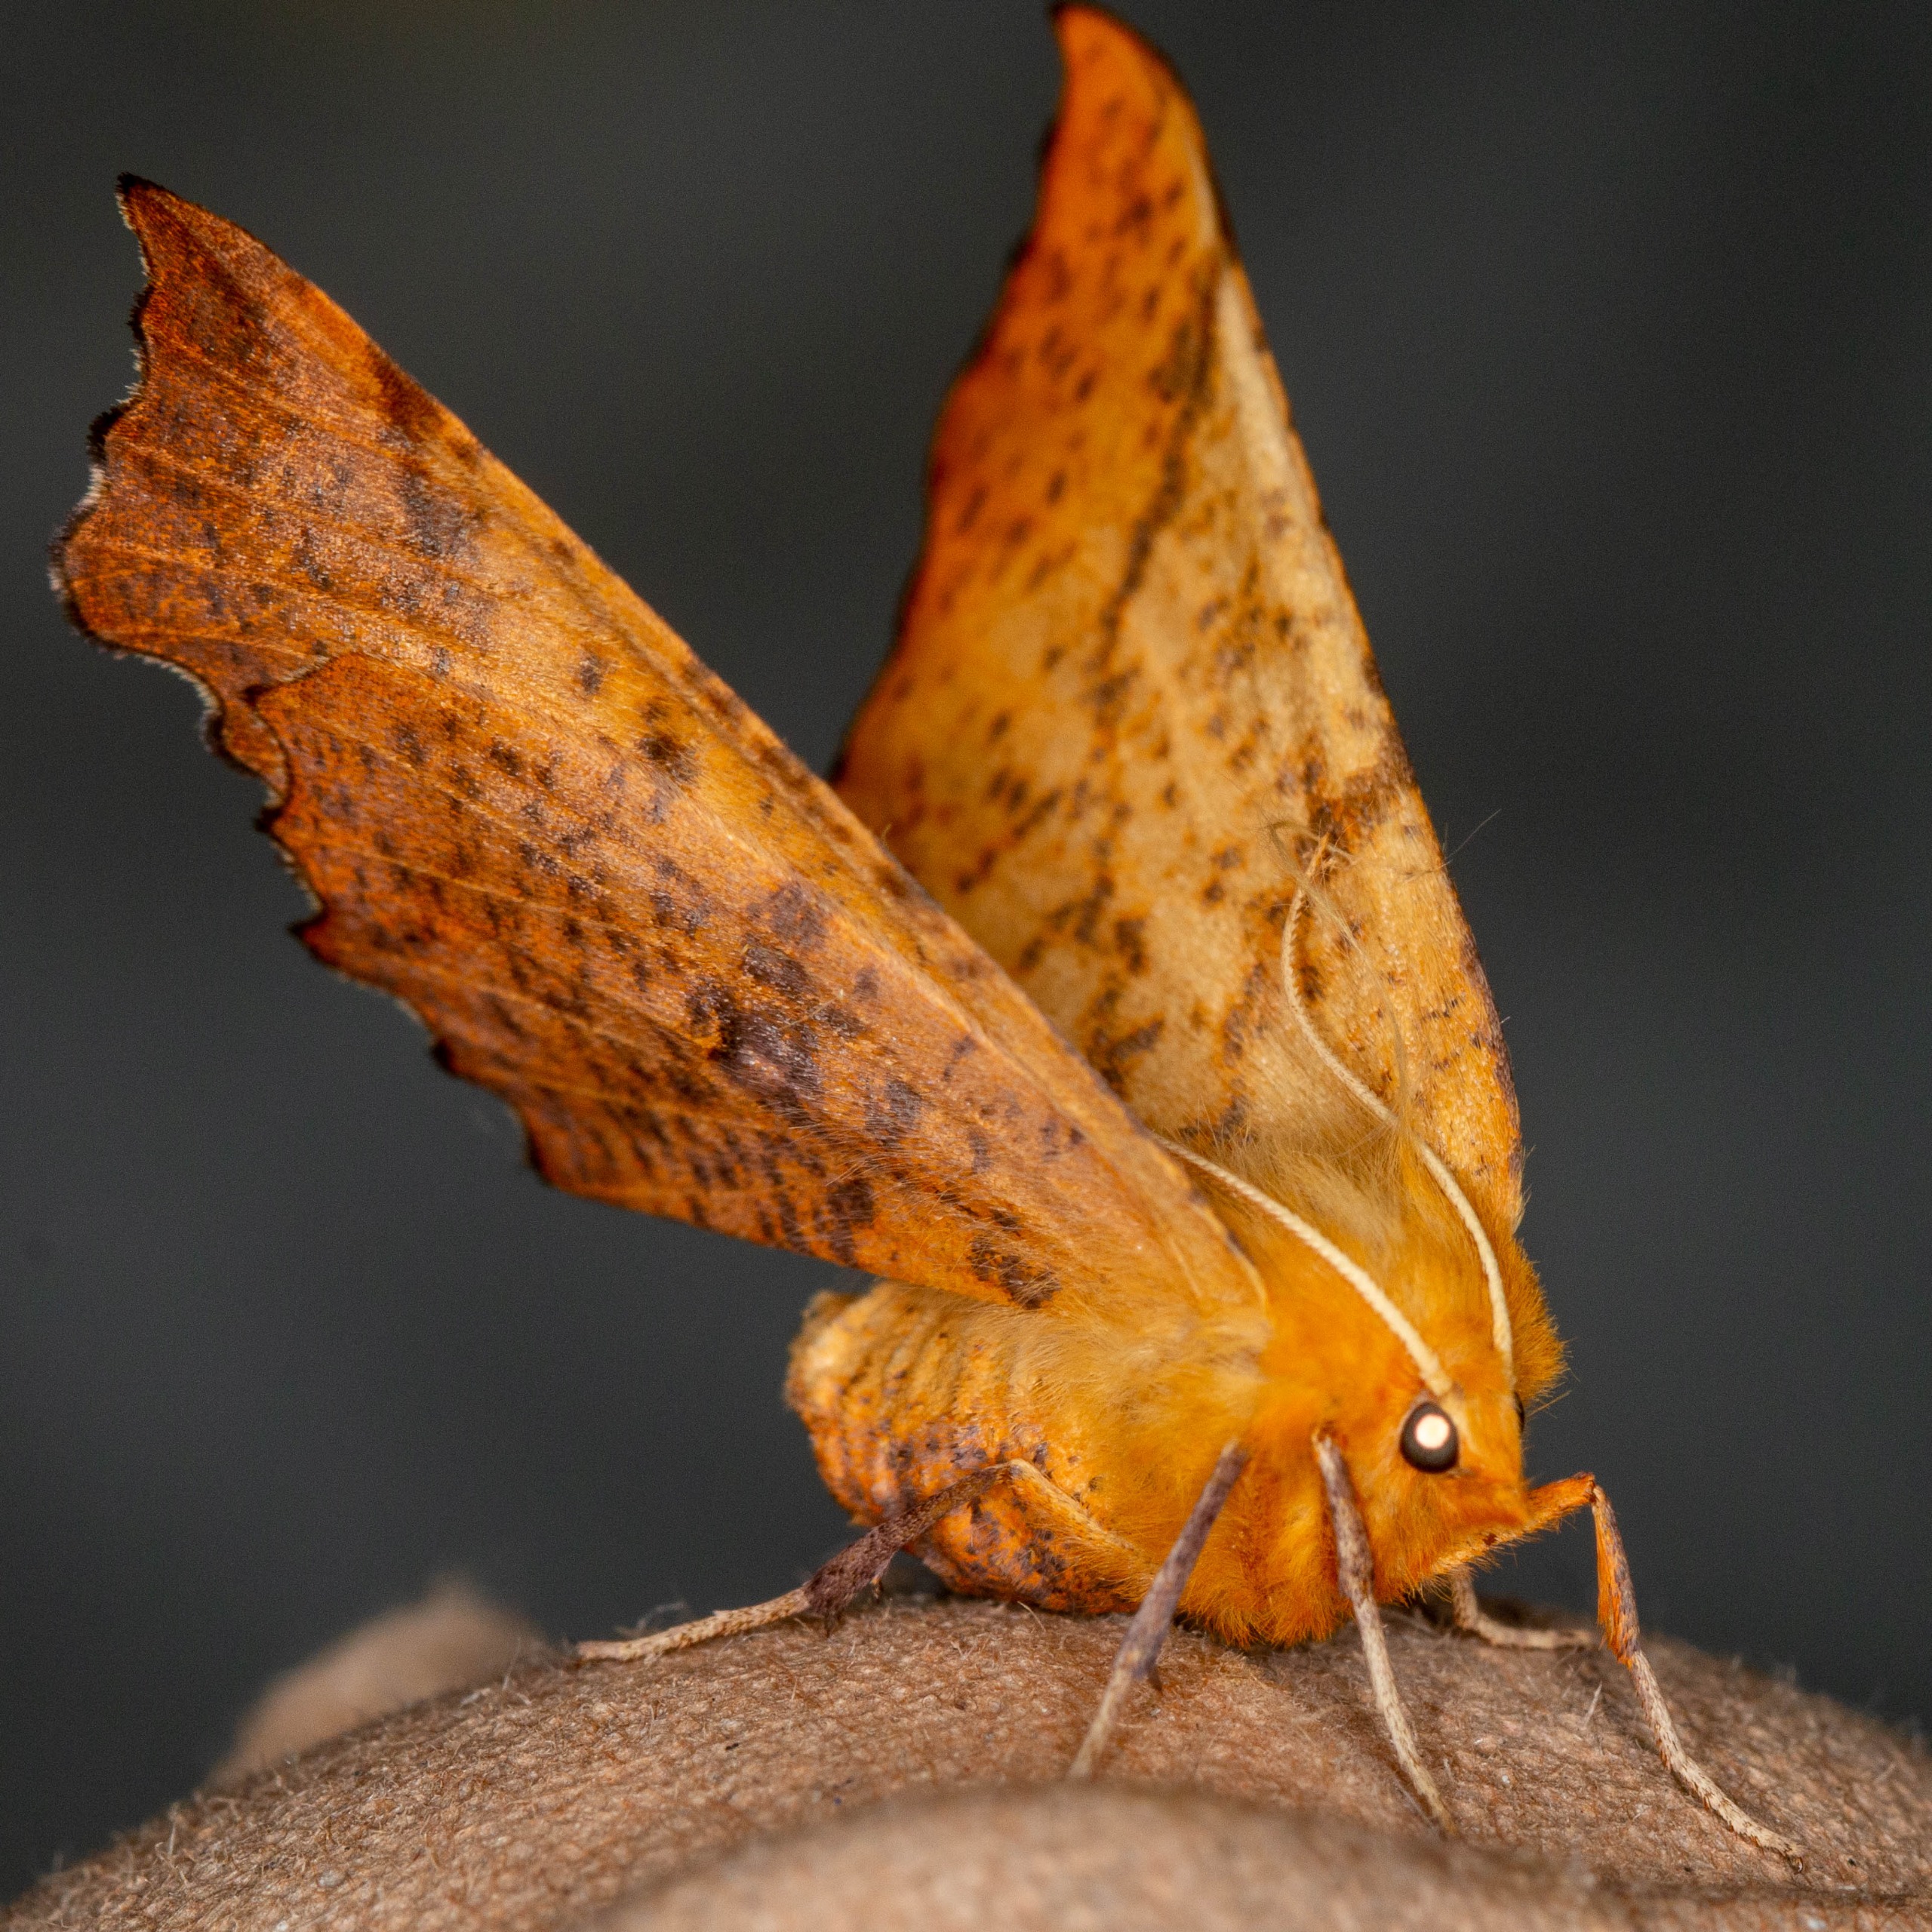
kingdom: Animalia
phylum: Arthropoda
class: Insecta
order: Lepidoptera
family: Geometridae
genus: Ennomos
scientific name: Ennomos autumnaria
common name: Stor tandmåler
